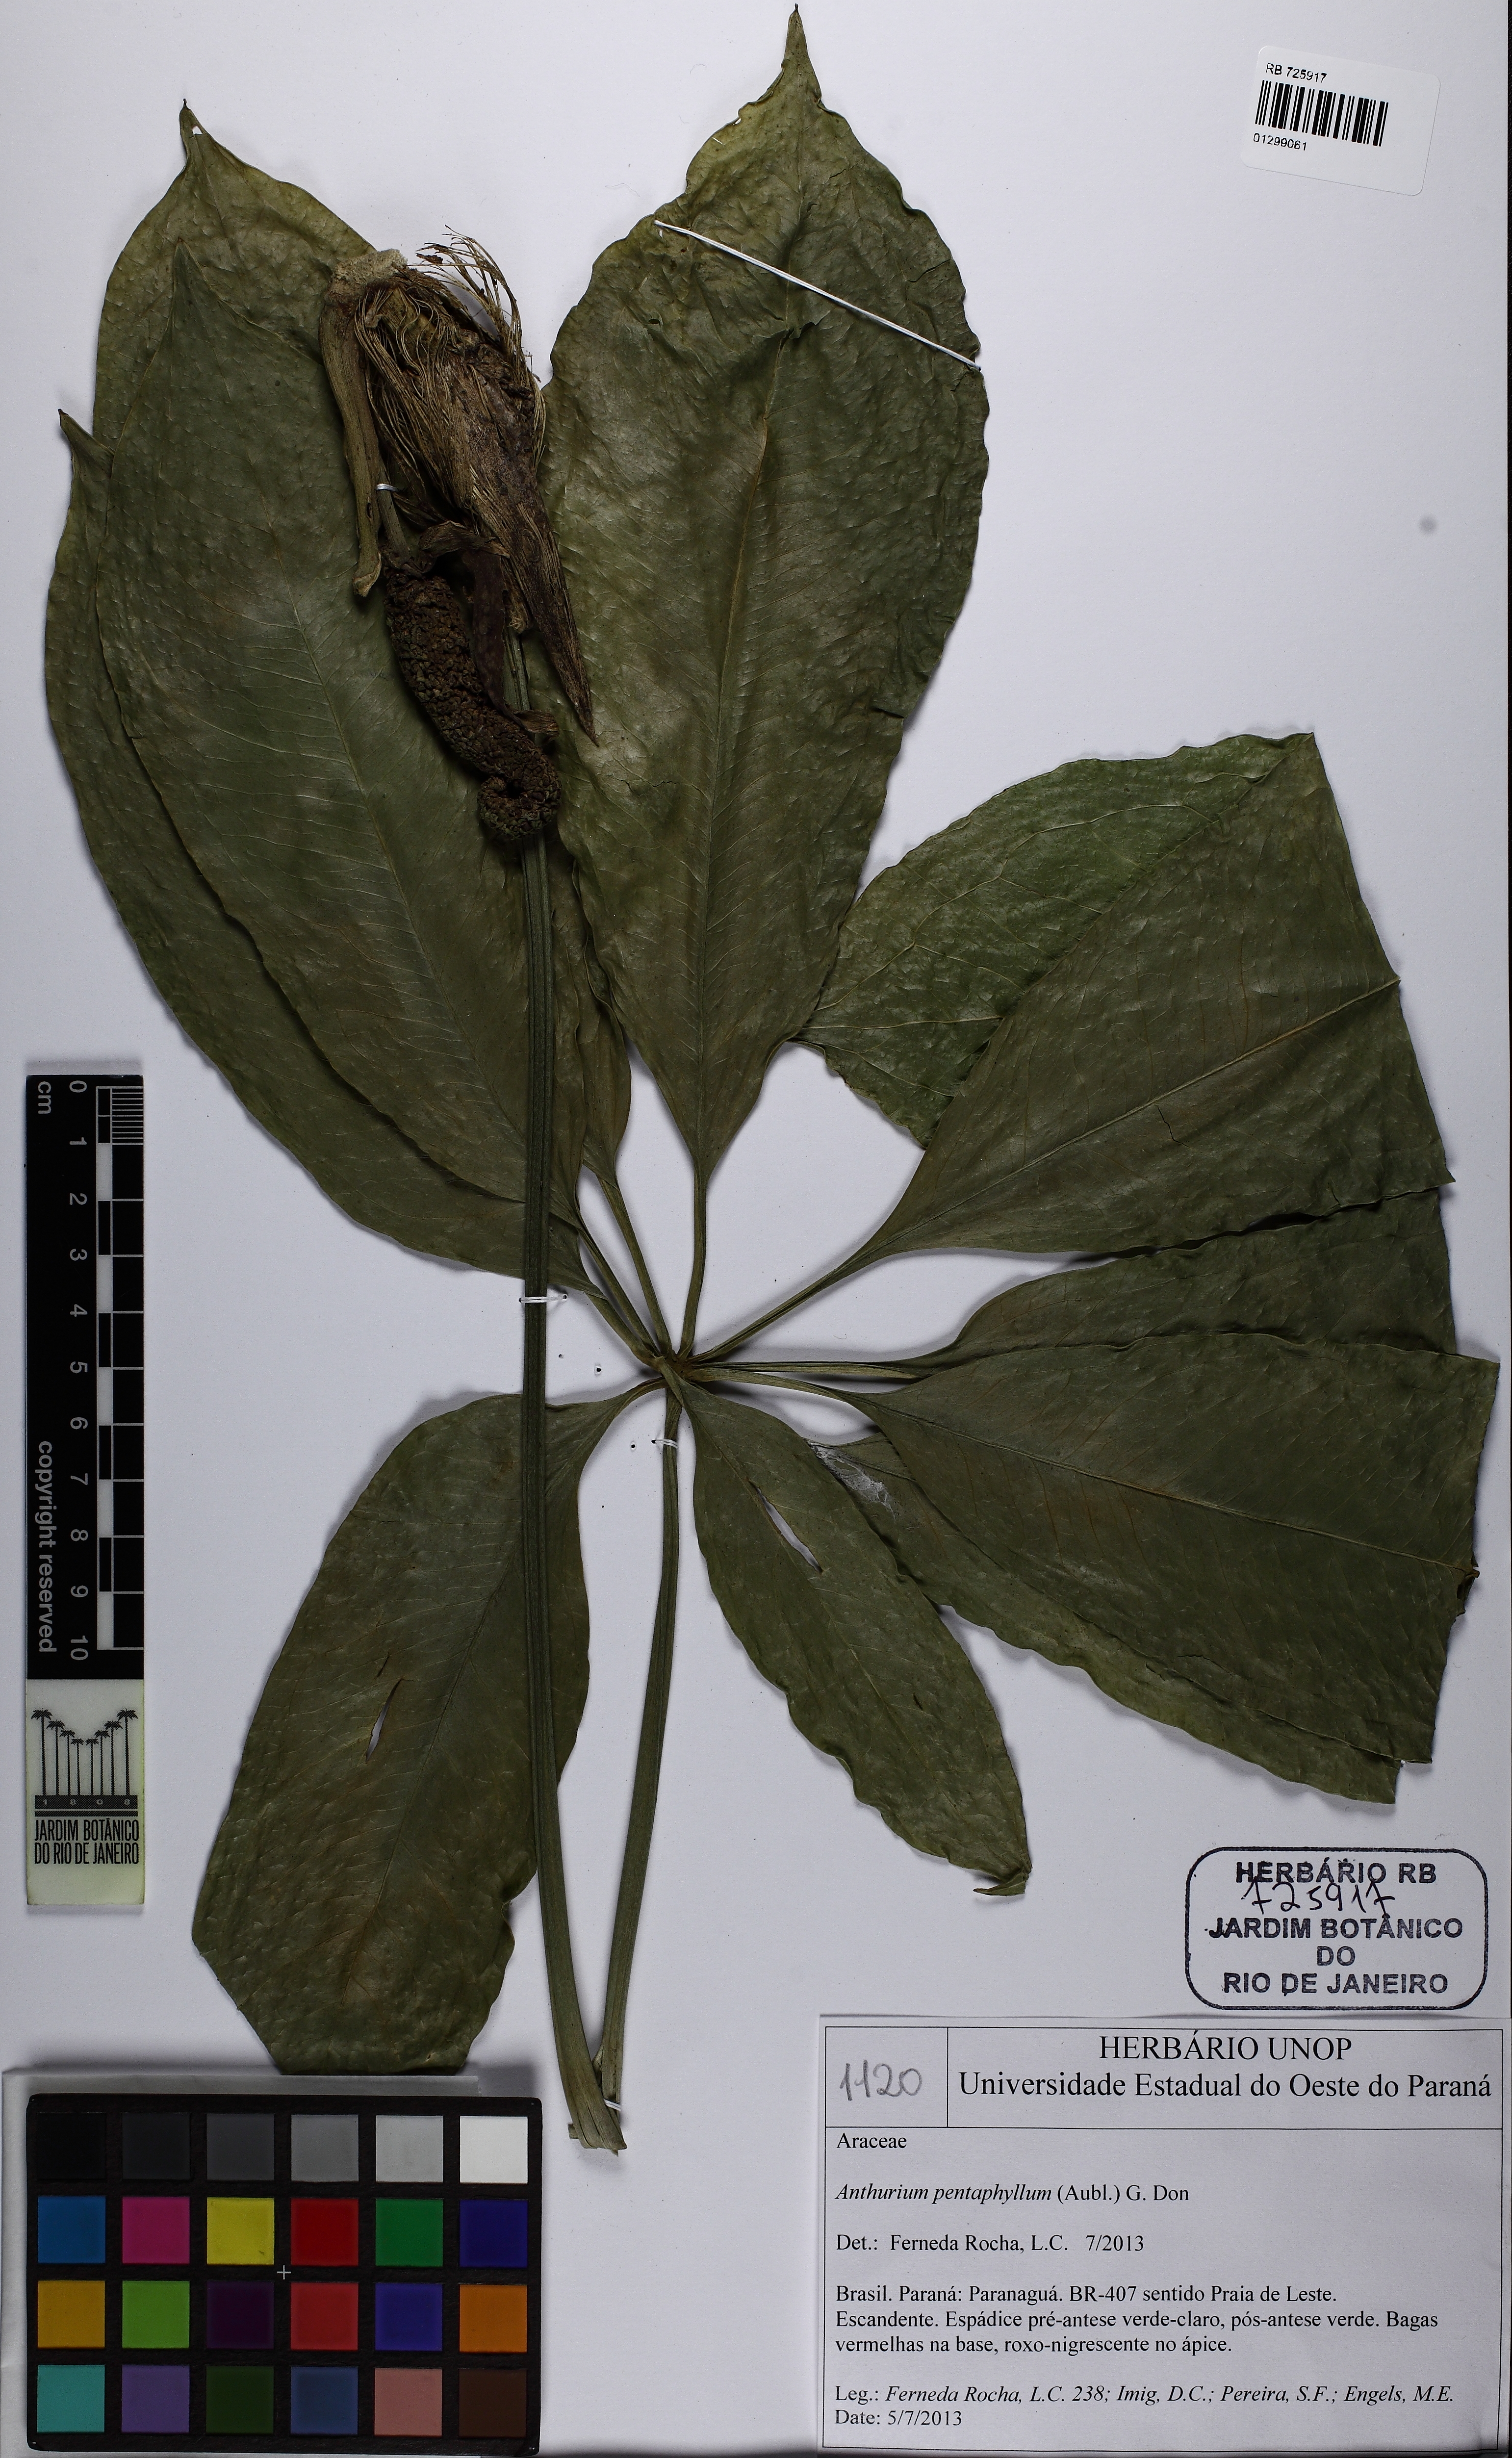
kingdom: Plantae
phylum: Tracheophyta
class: Liliopsida
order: Alismatales
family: Araceae
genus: Anthurium
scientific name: Anthurium pentaphyllum
